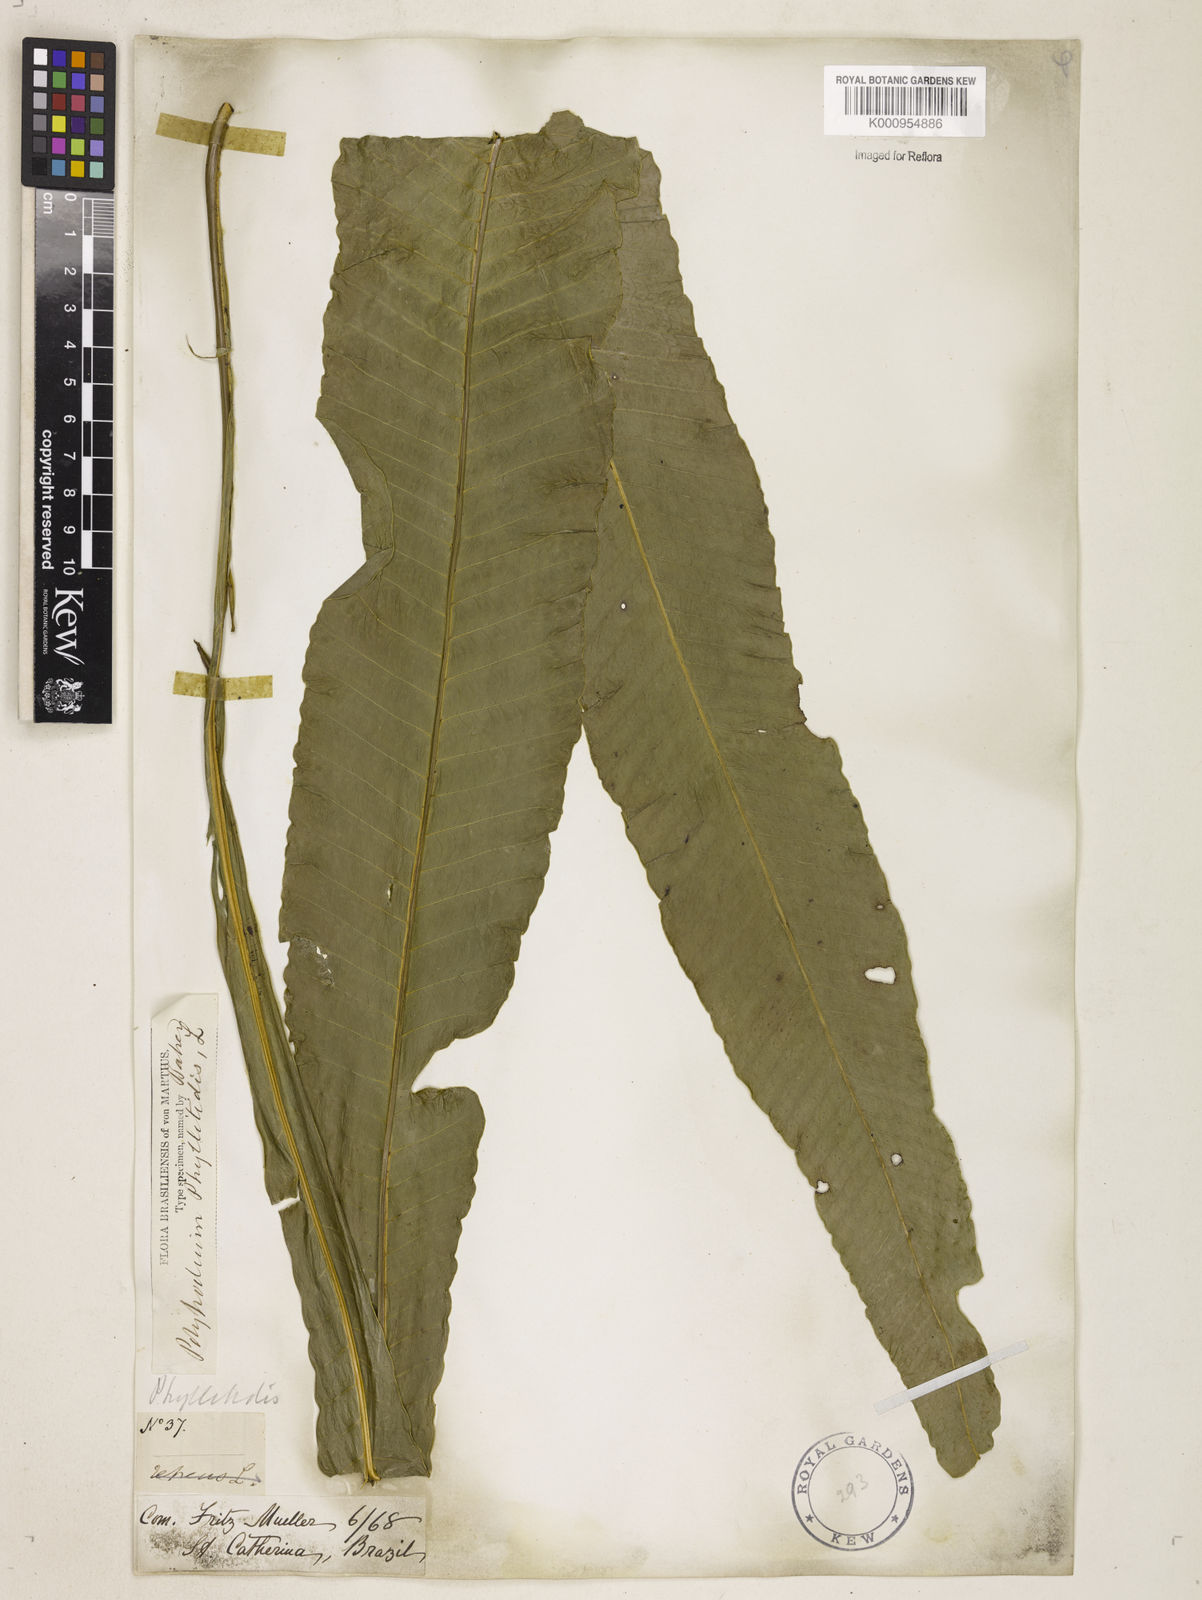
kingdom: Plantae
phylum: Tracheophyta
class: Polypodiopsida
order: Polypodiales
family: Polypodiaceae
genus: Campyloneurum
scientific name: Campyloneurum phyllitidis
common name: Cow-tongue fern
